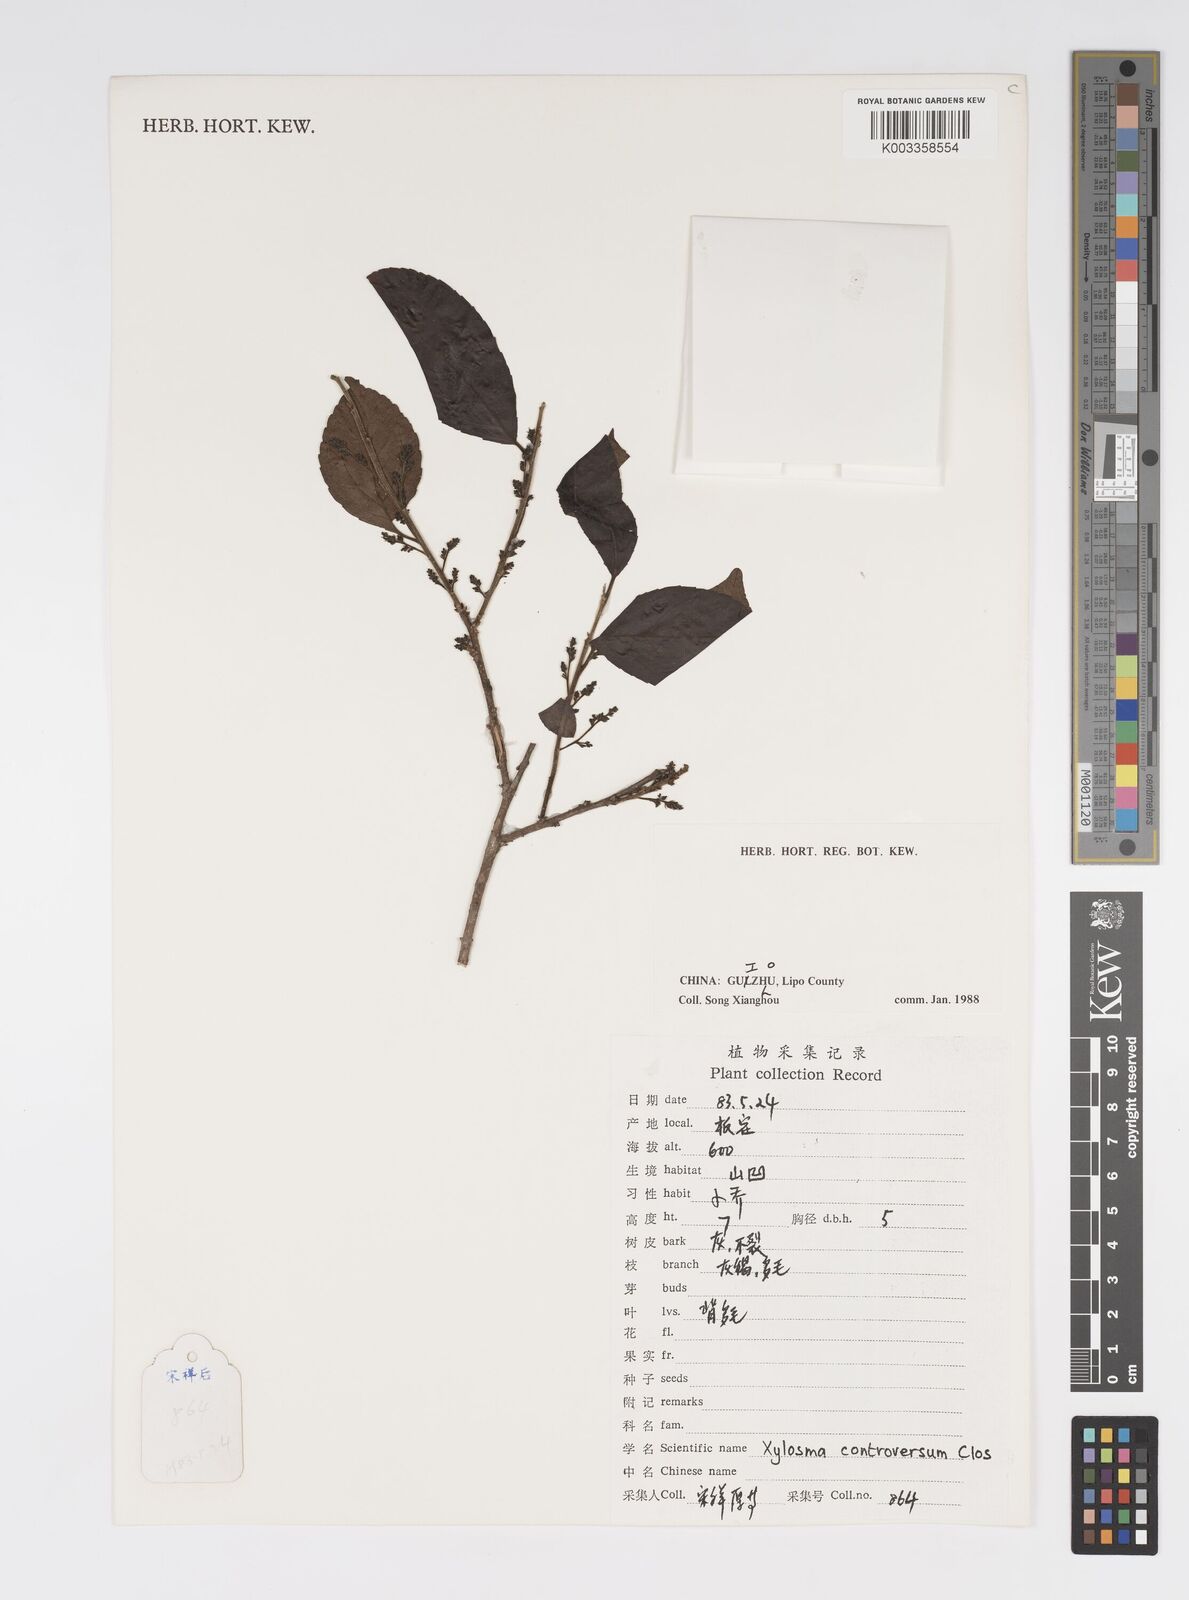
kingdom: Plantae
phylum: Tracheophyta
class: Magnoliopsida
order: Malpighiales
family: Salicaceae
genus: Xylosma
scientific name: Xylosma controversa
